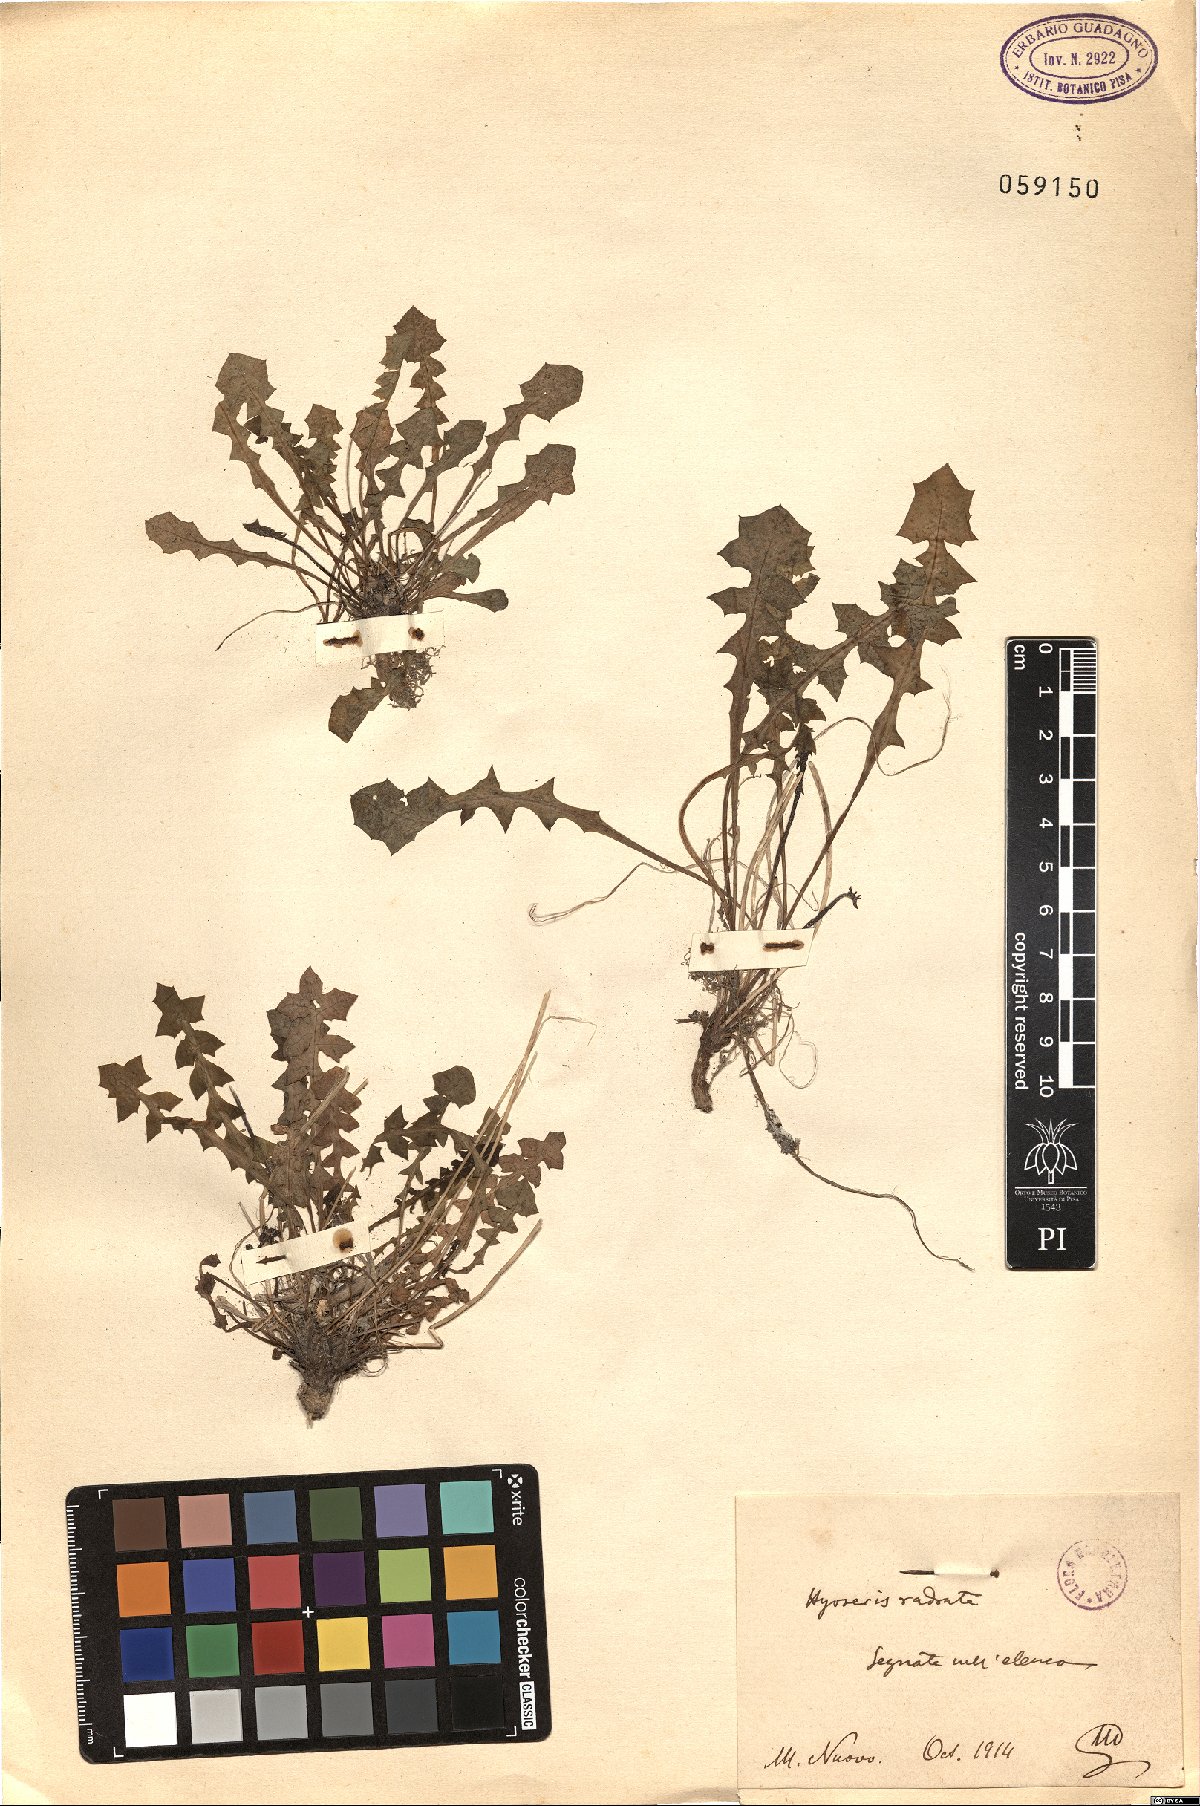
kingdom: Plantae
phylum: Tracheophyta
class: Magnoliopsida
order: Asterales
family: Asteraceae
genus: Hyoseris
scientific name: Hyoseris radiata
